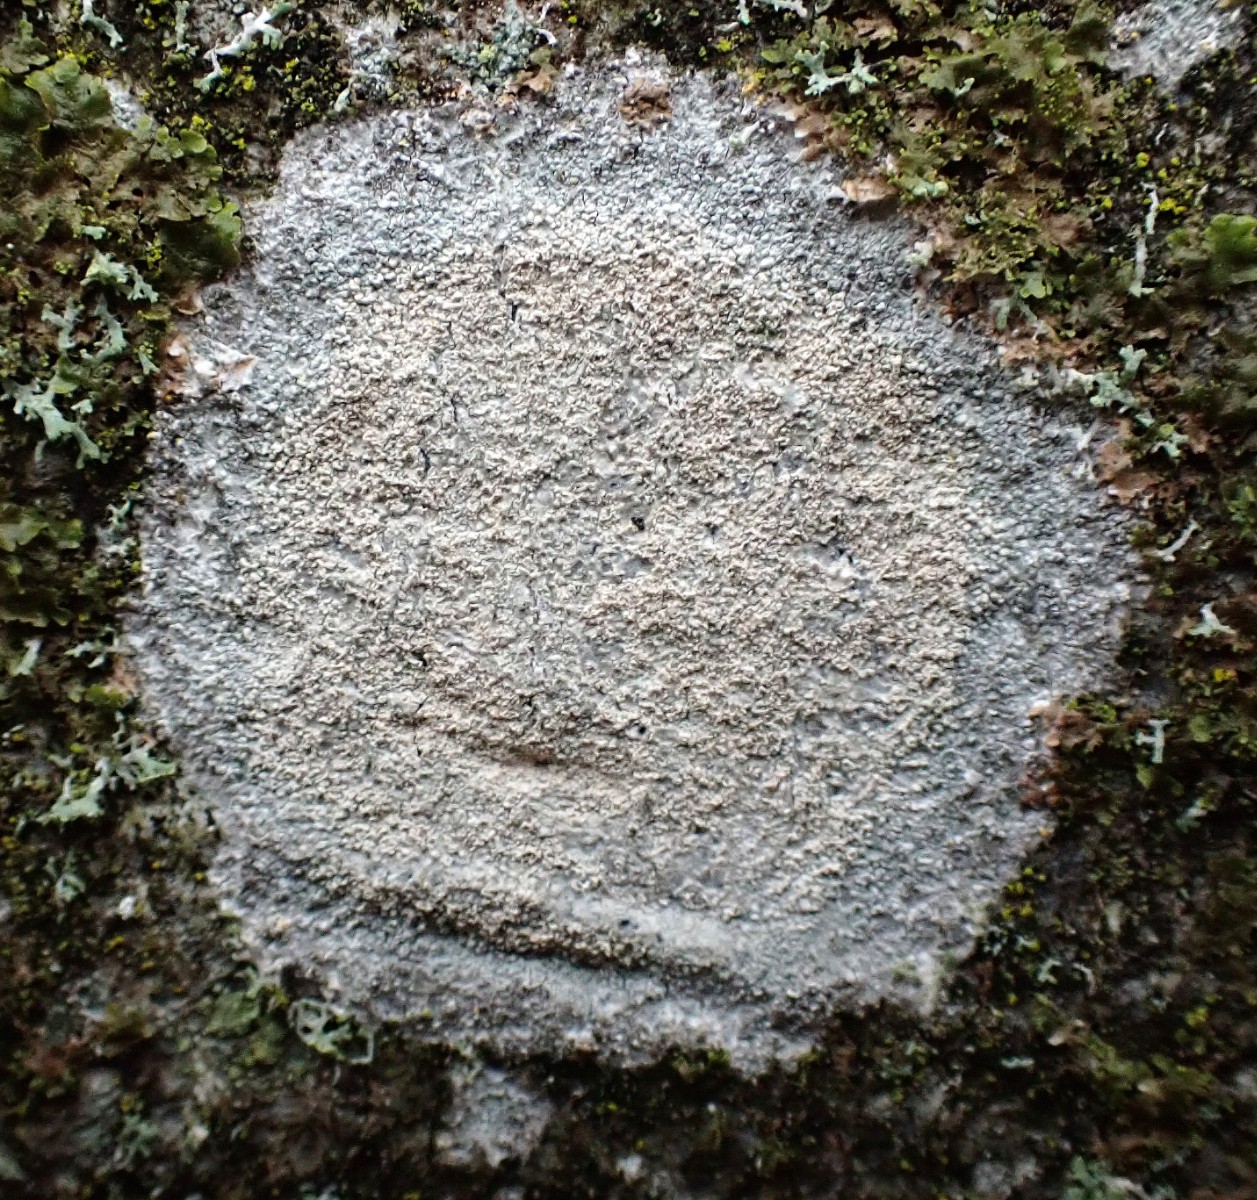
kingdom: Fungi
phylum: Ascomycota
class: Lecanoromycetes
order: Ostropales
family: Phlyctidaceae
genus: Phlyctis
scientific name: Phlyctis argena
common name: almindelig sølvlav
